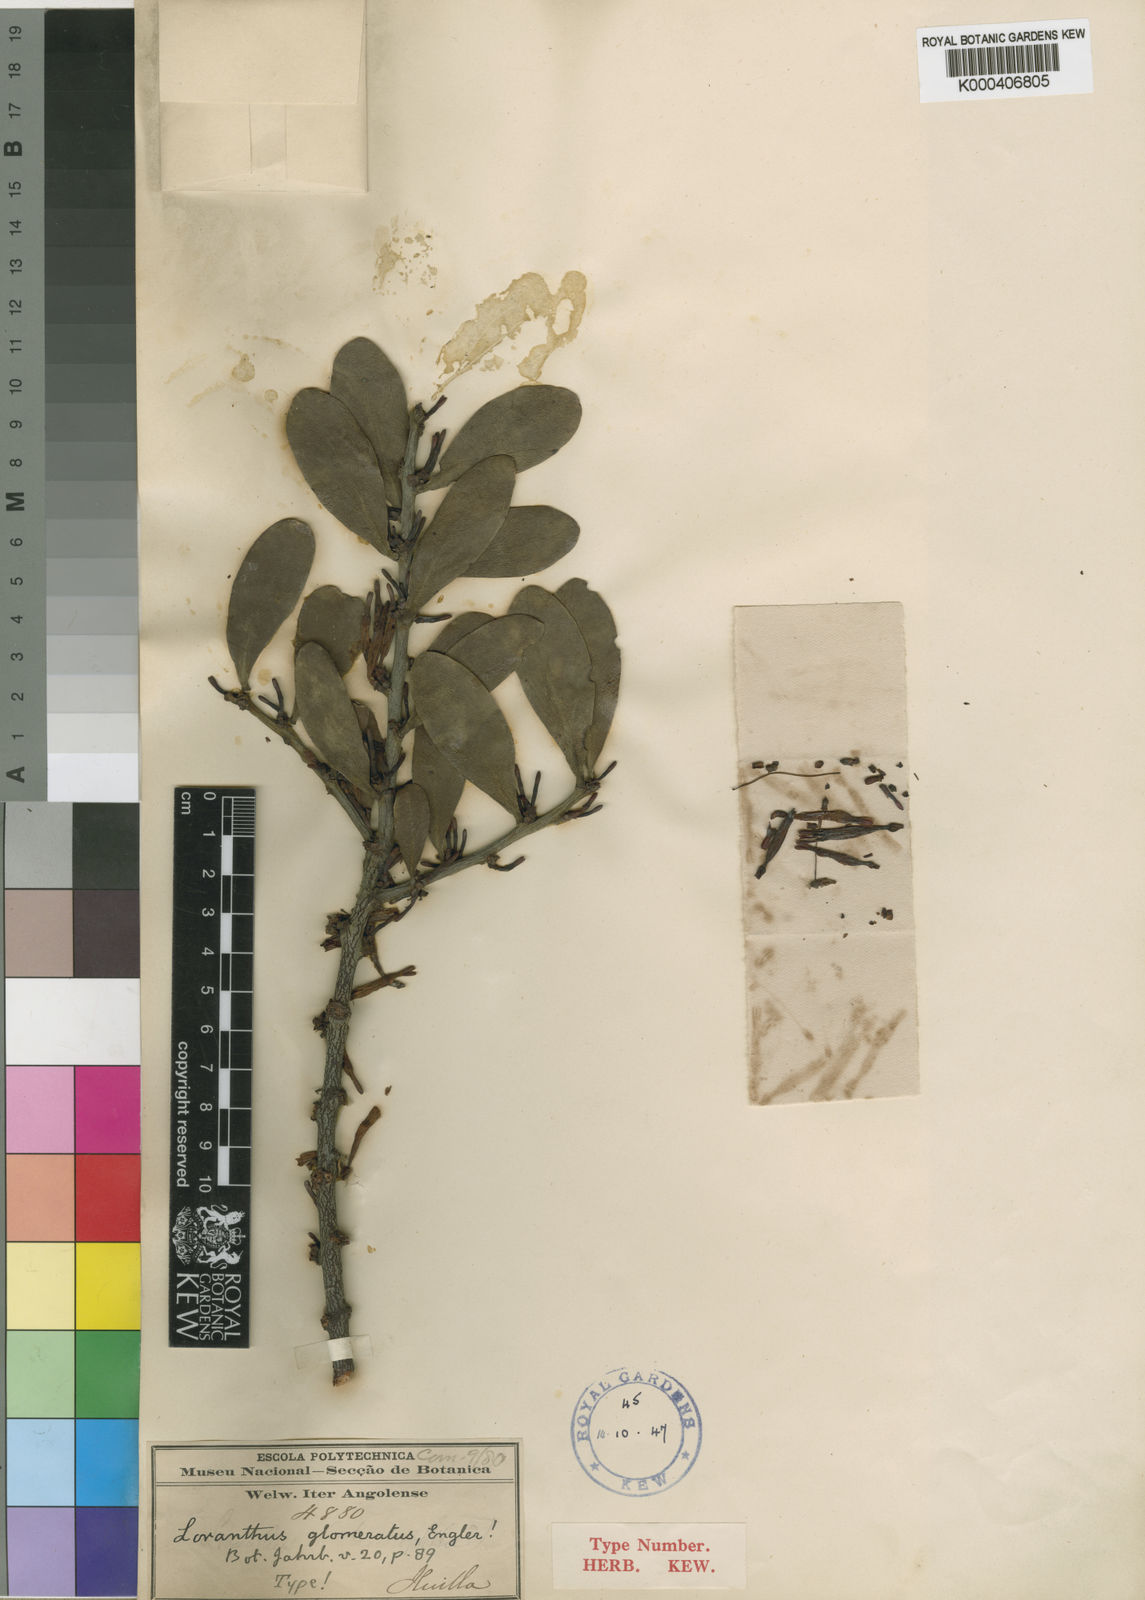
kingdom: Plantae
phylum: Tracheophyta
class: Magnoliopsida
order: Santalales
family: Loranthaceae
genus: Agelanthus
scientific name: Agelanthus glomeratus
